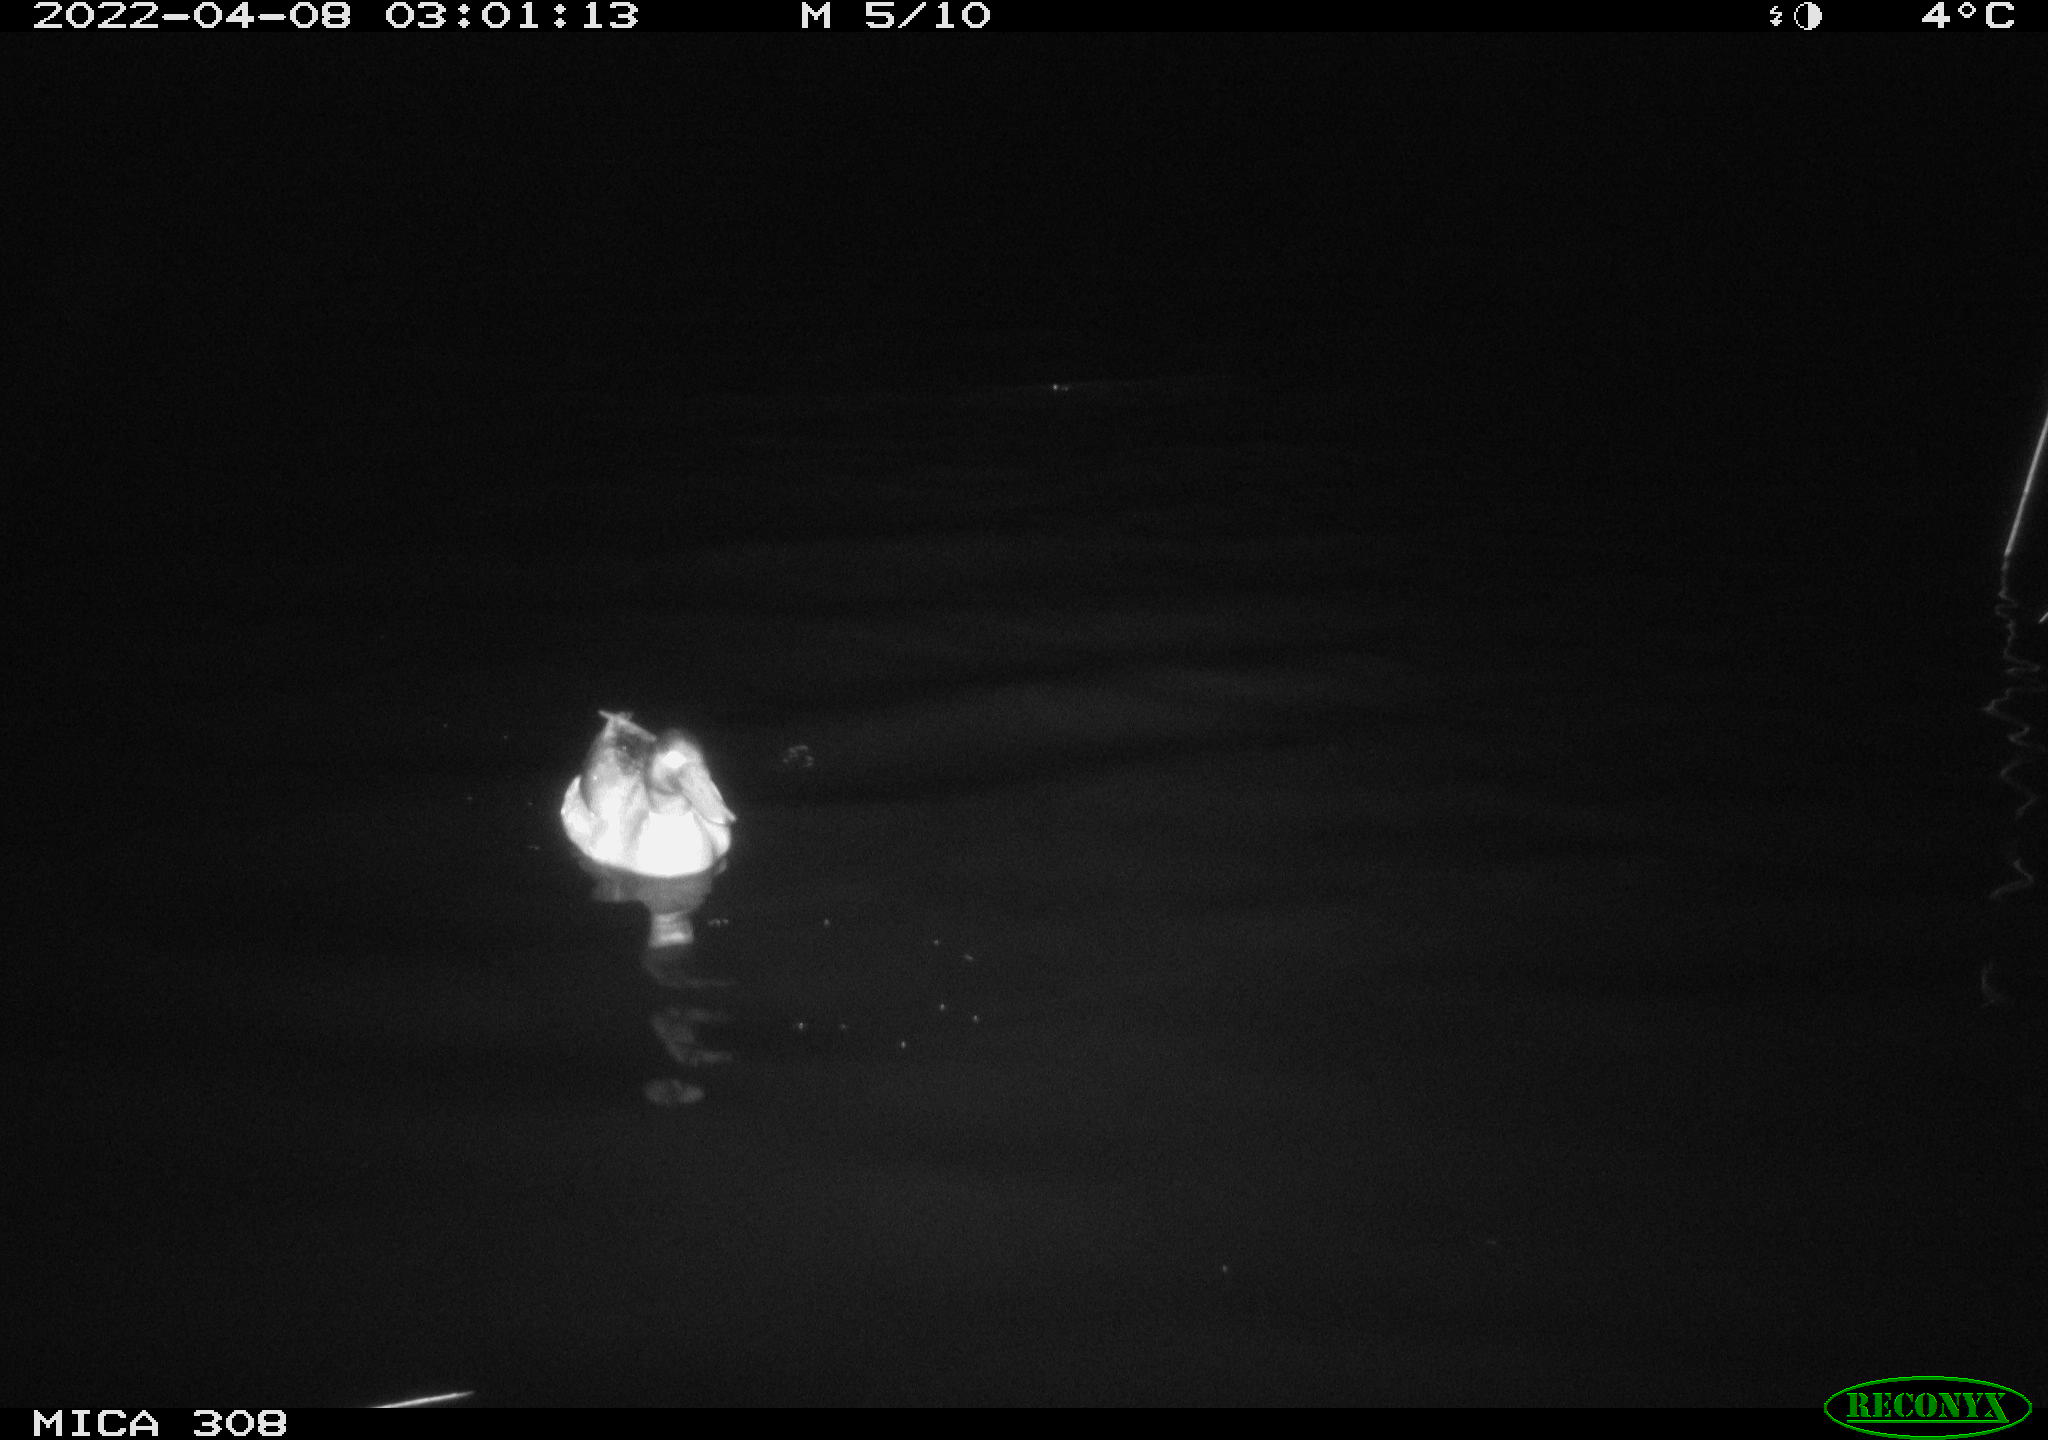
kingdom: Animalia
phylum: Chordata
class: Aves
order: Anseriformes
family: Anatidae
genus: Anas
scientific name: Anas platyrhynchos
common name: Mallard
